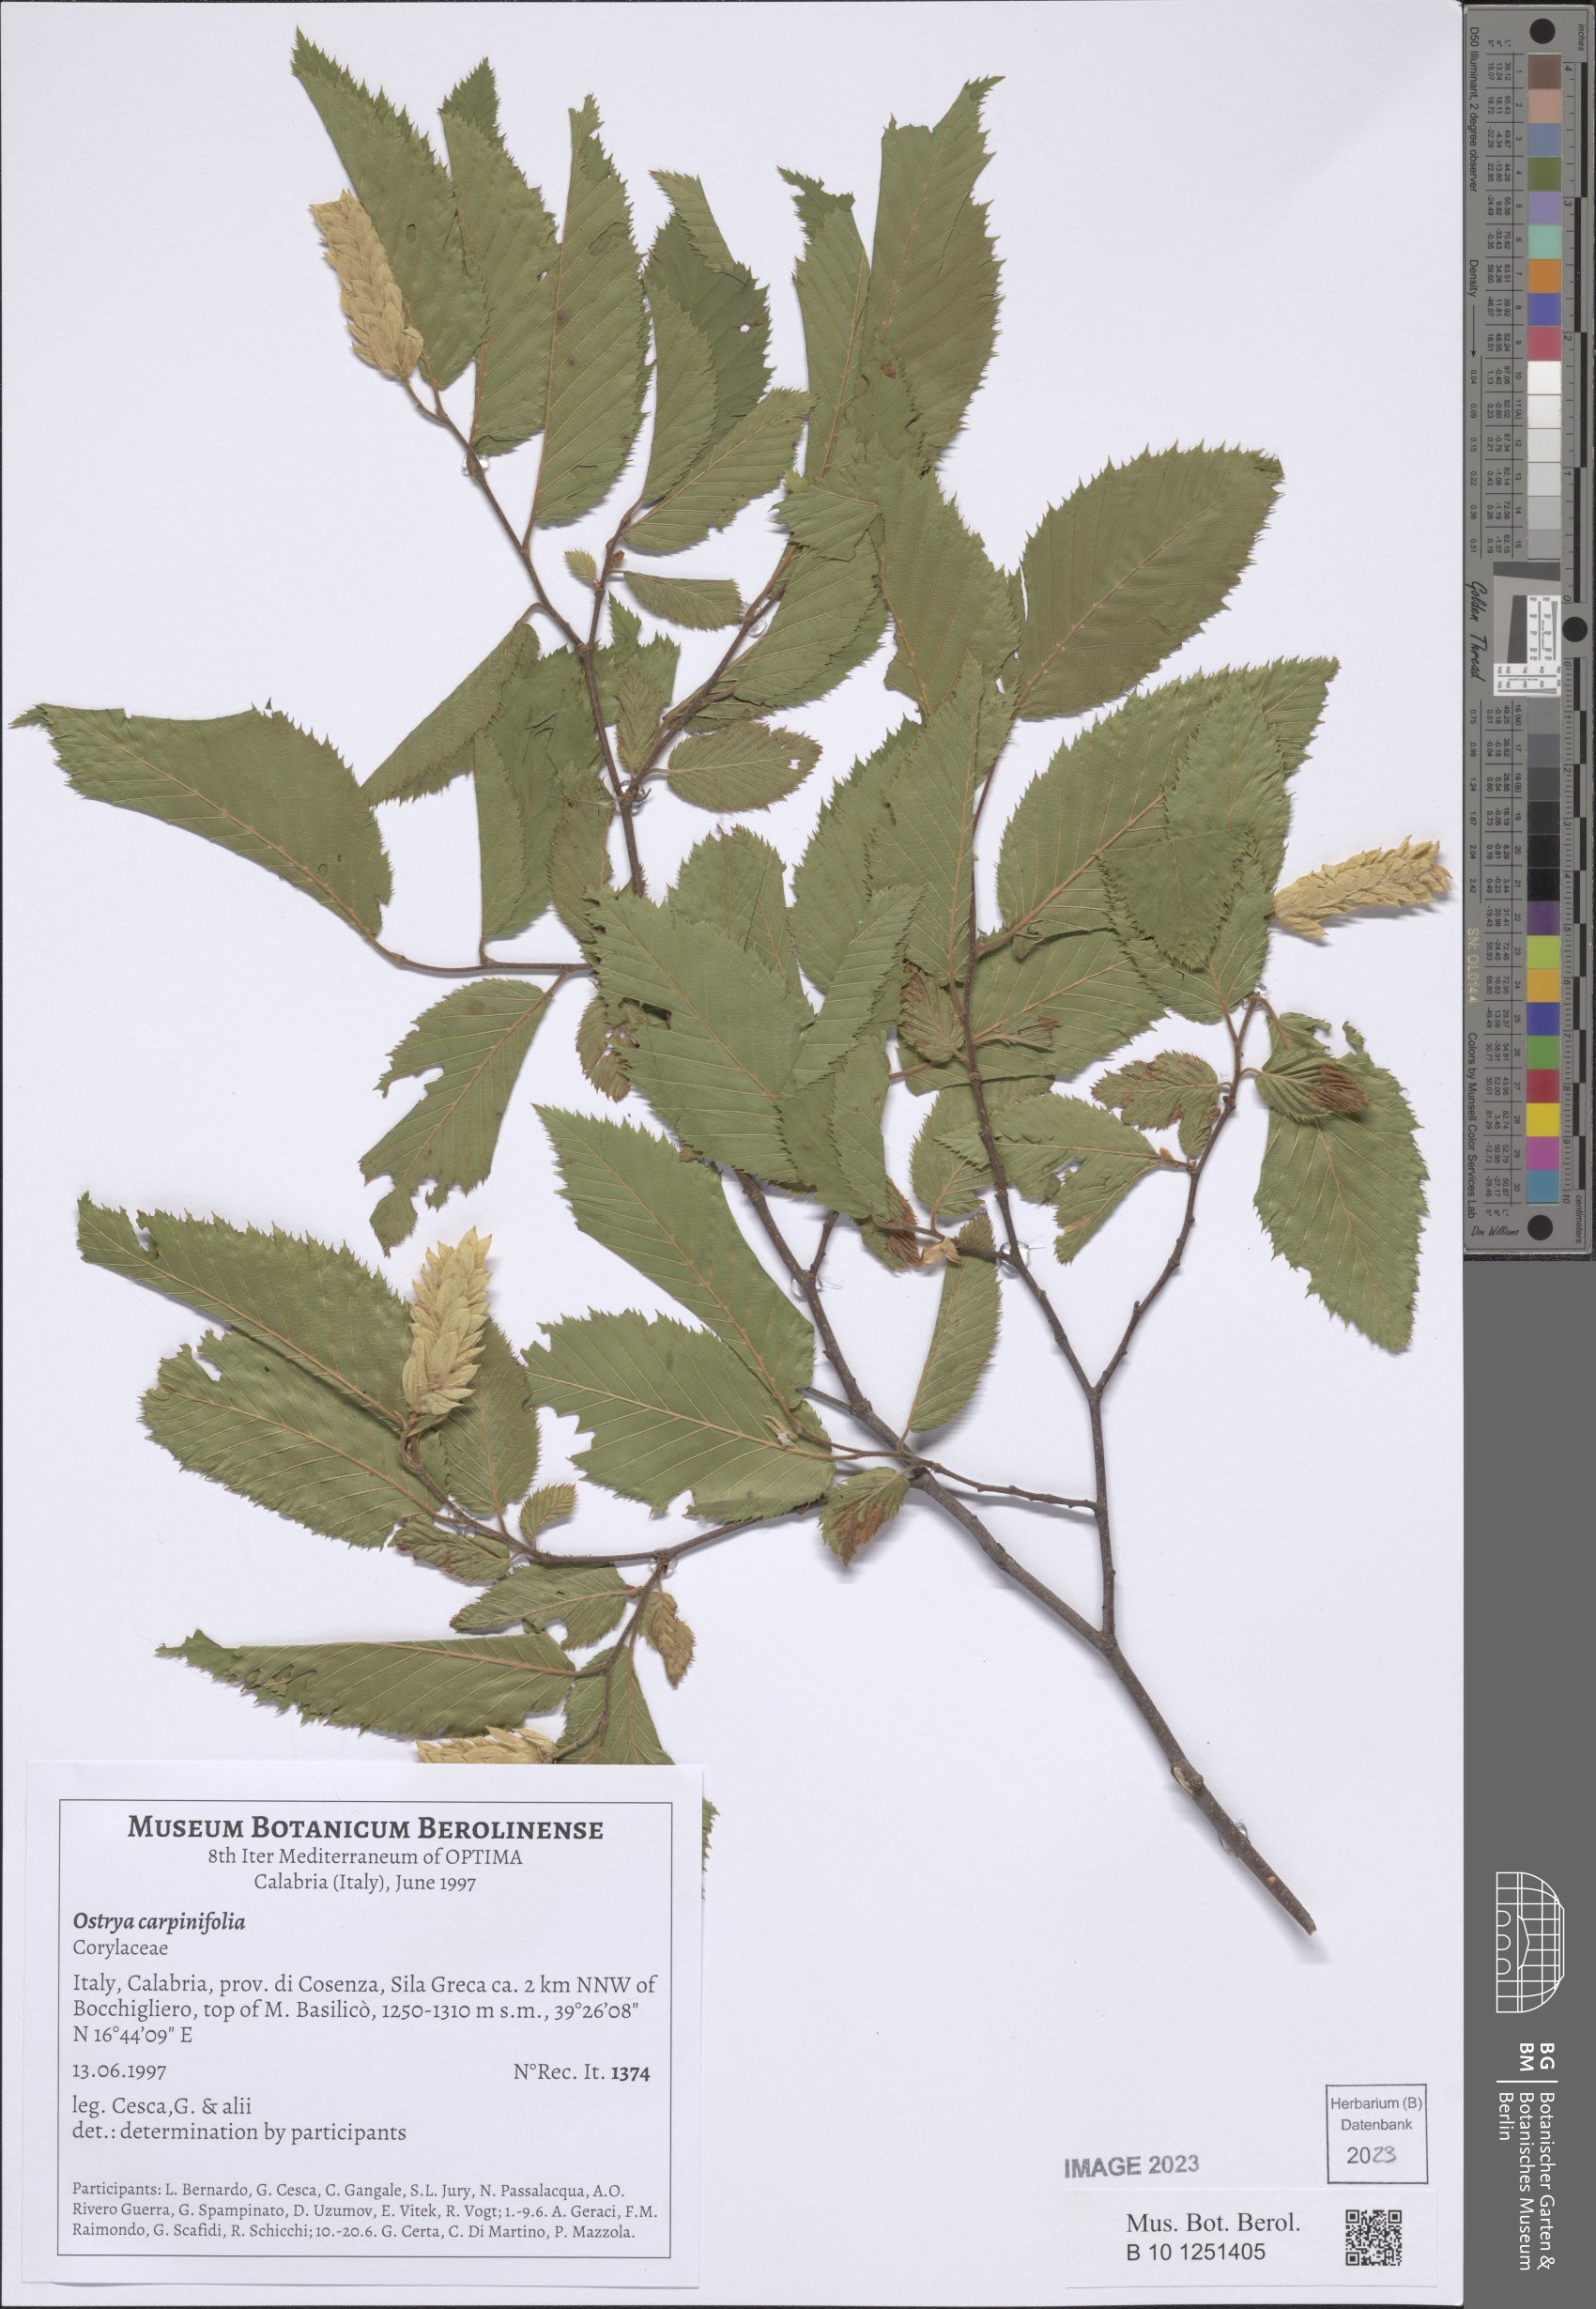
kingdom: Plantae
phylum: Tracheophyta
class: Magnoliopsida
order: Fagales
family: Betulaceae
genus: Ostrya
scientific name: Ostrya carpinifolia
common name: European hop-hornbeam
